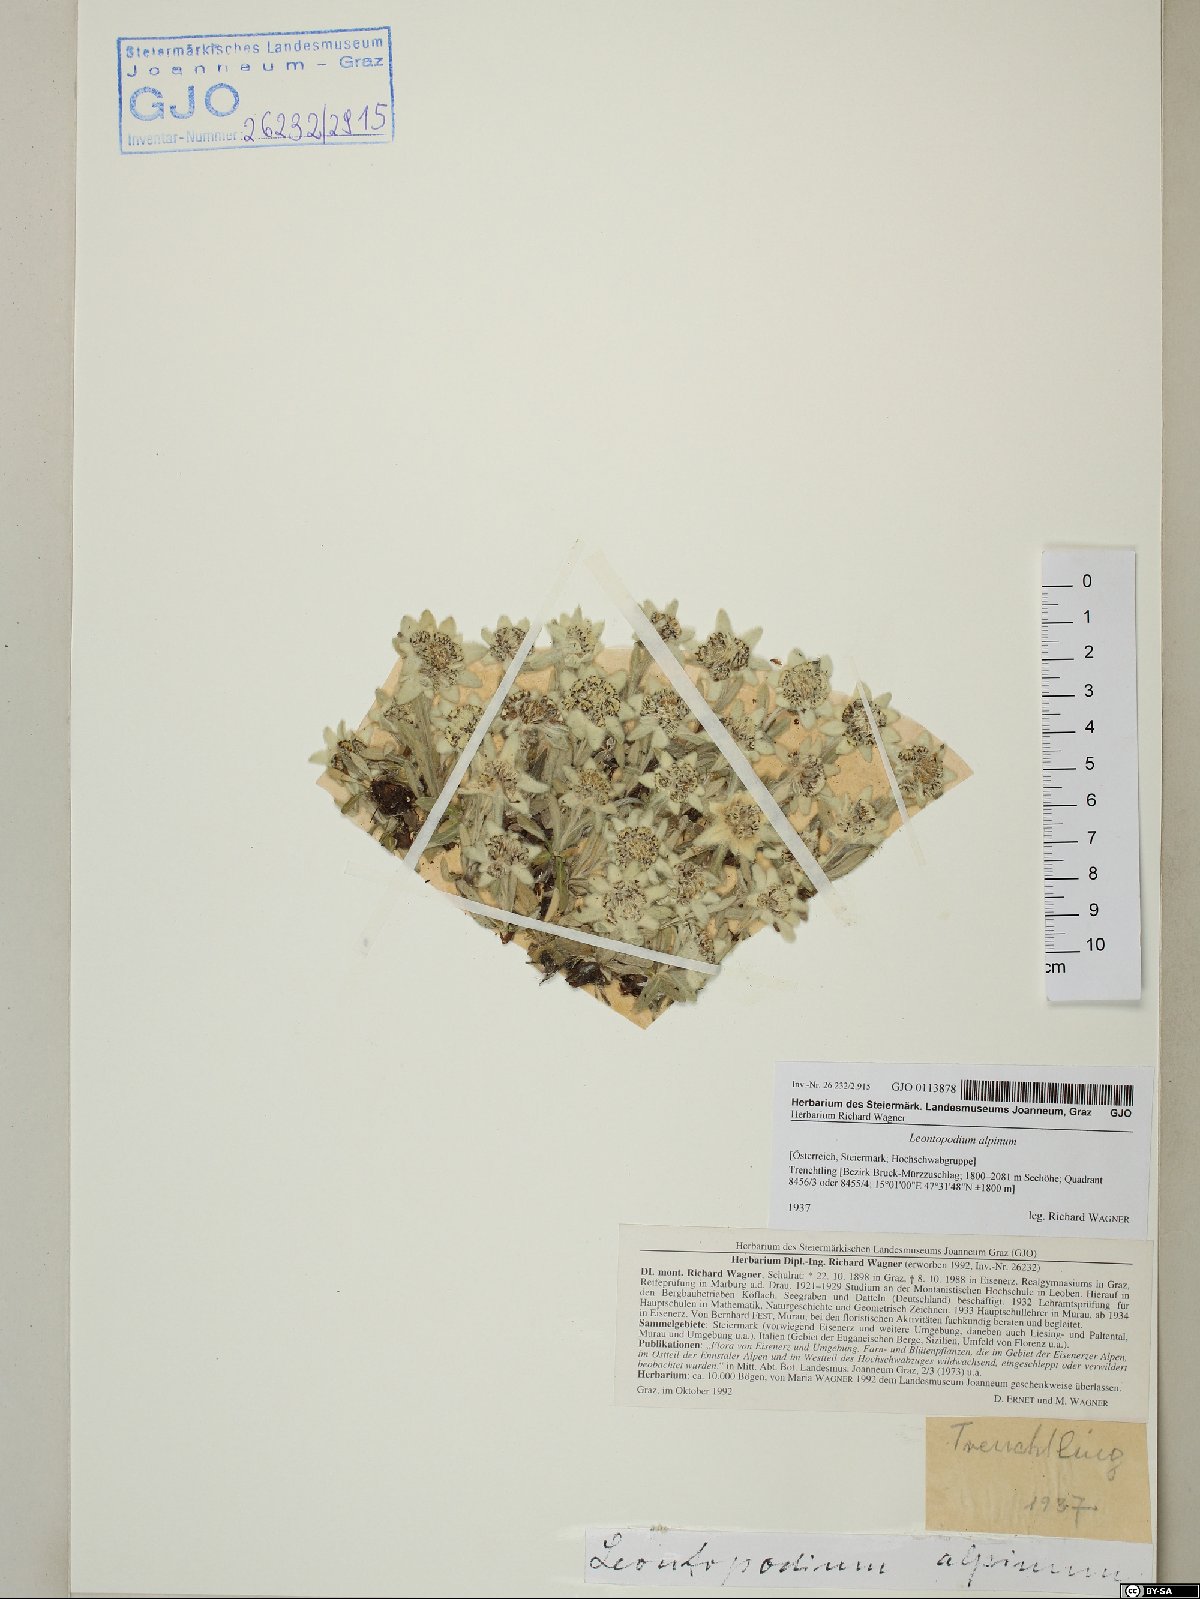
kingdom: Plantae
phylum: Tracheophyta
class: Magnoliopsida
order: Asterales
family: Asteraceae
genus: Leontopodium
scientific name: Leontopodium nivale
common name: Edelweiss
